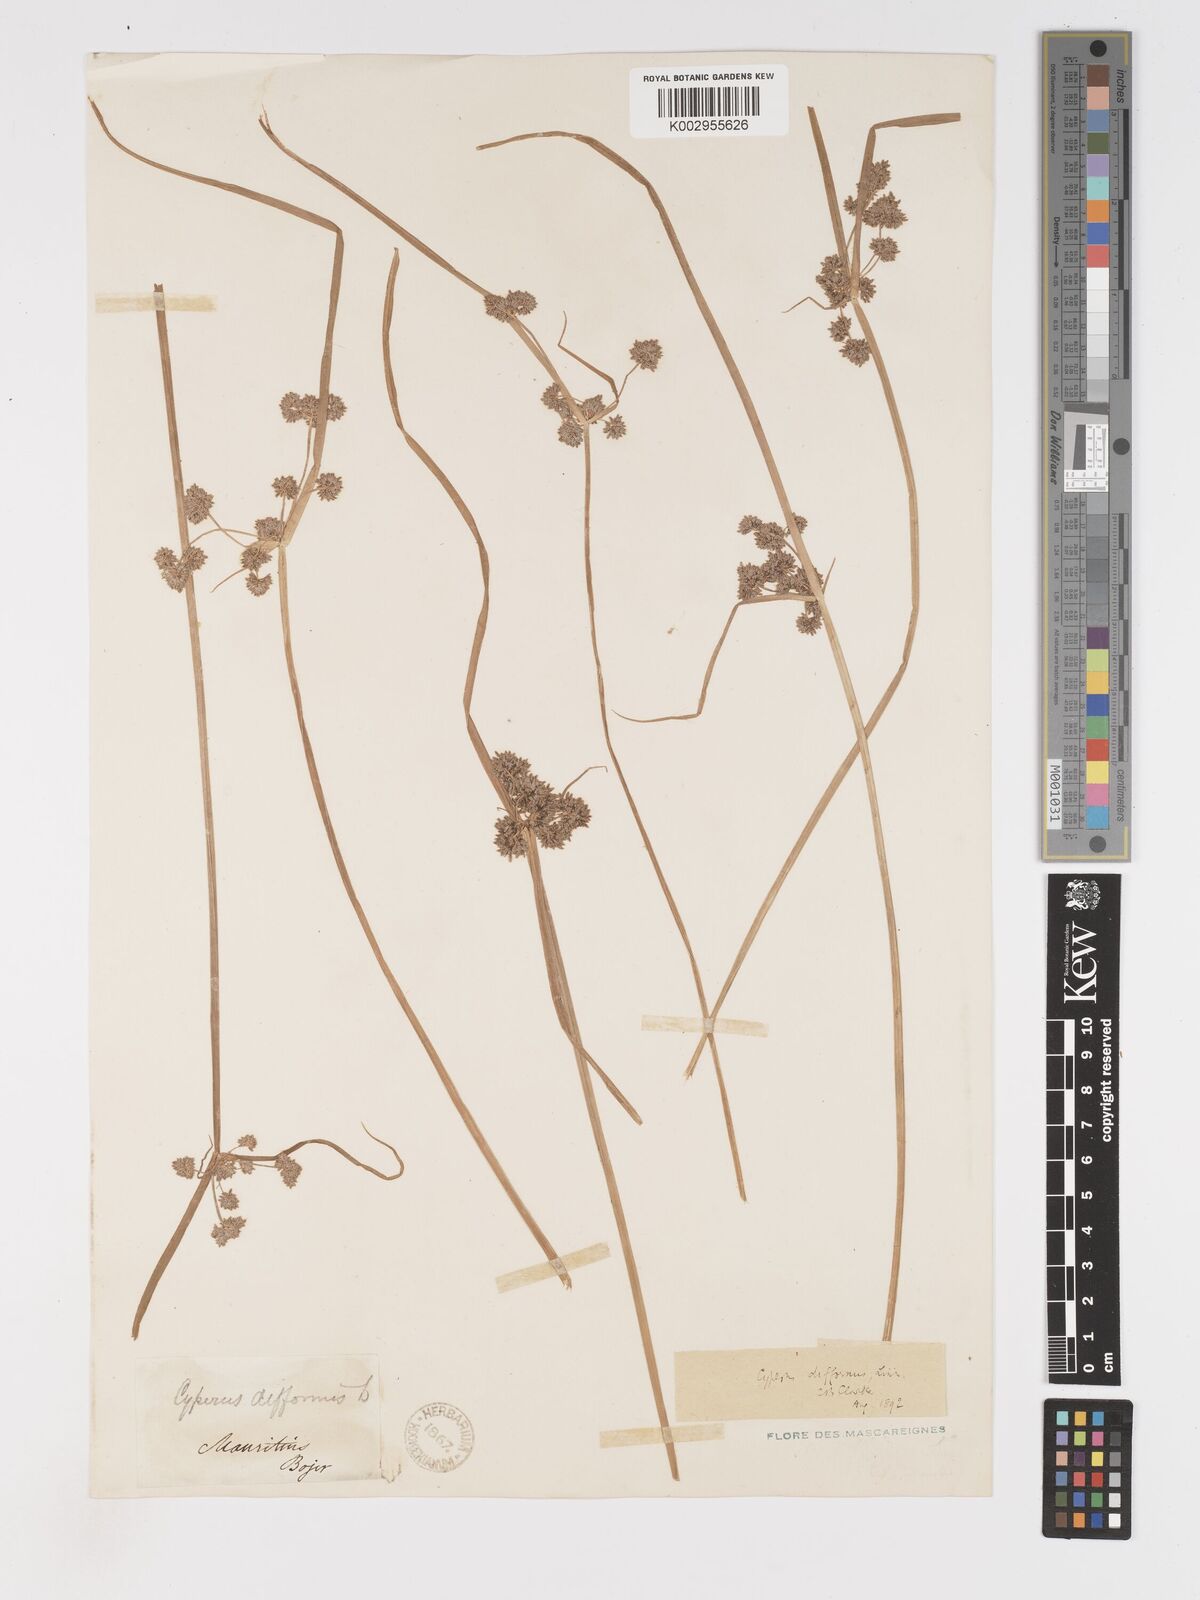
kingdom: Plantae
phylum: Tracheophyta
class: Liliopsida
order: Poales
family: Cyperaceae
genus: Cyperus
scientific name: Cyperus difformis
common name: Variable flatsedge
